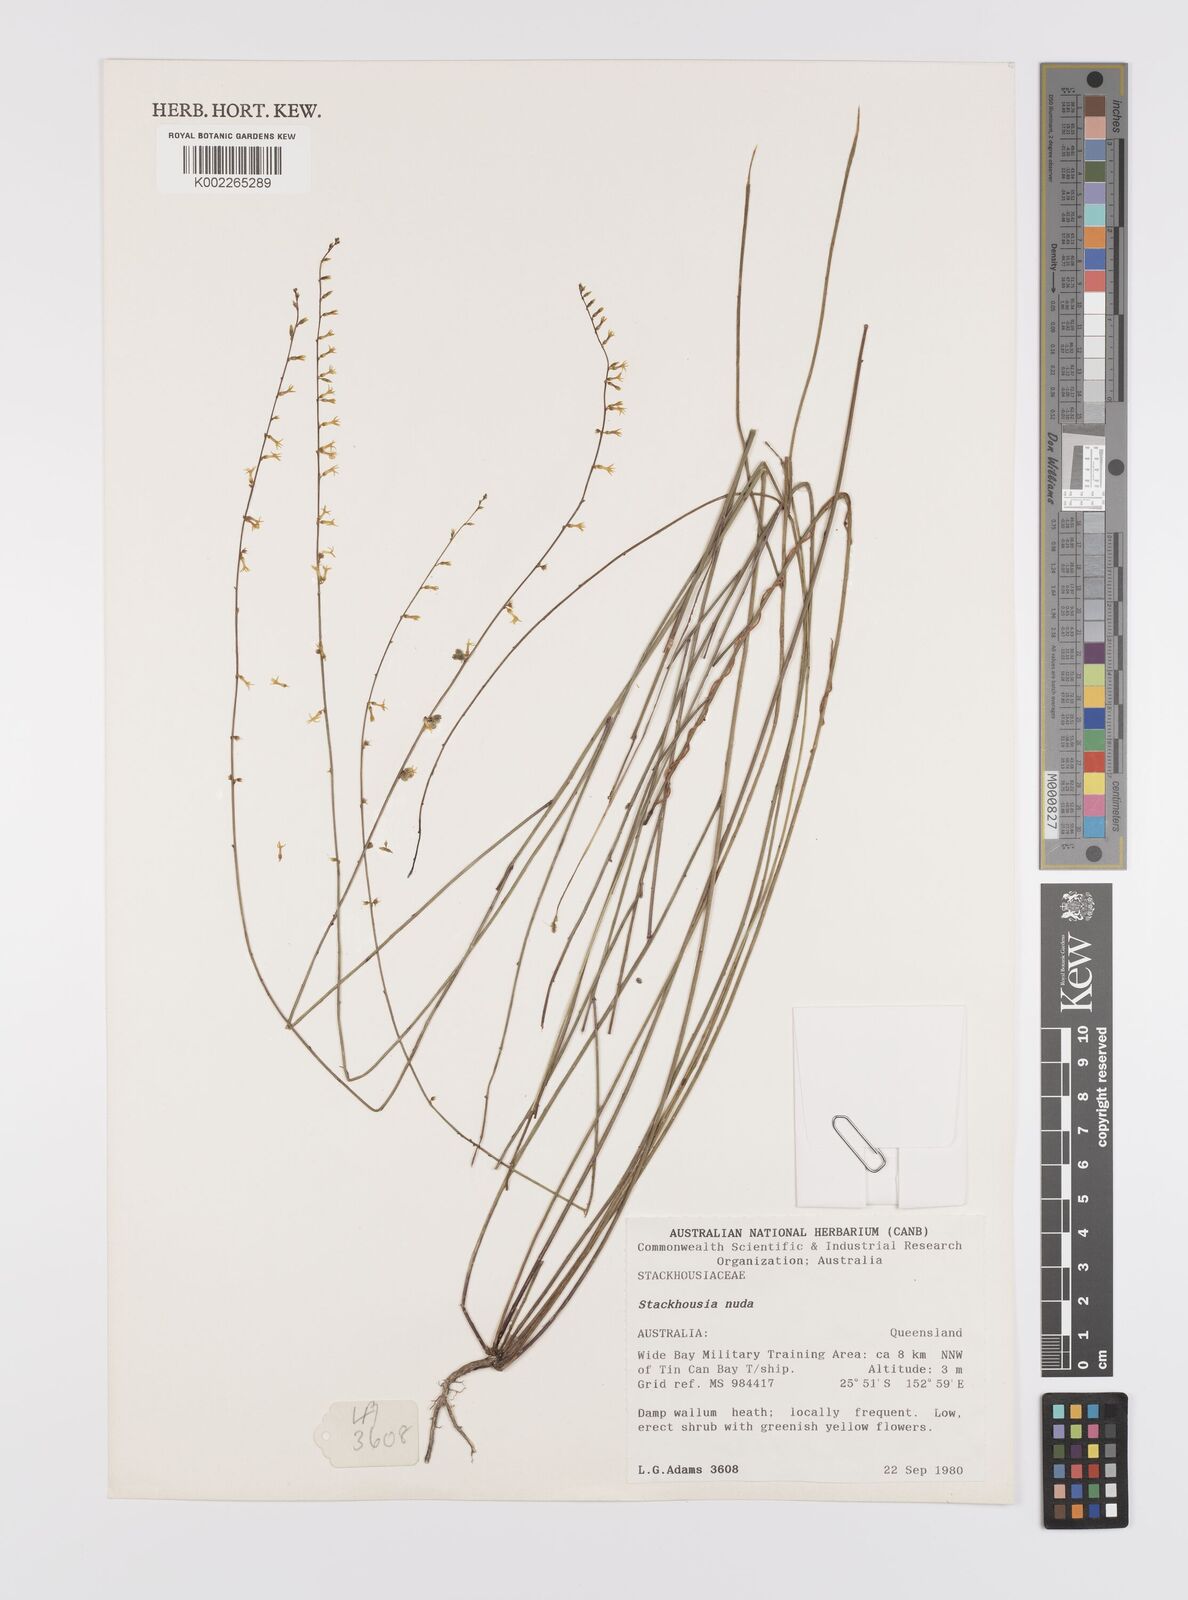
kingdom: Plantae
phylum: Tracheophyta
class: Magnoliopsida
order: Celastrales
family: Celastraceae
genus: Stackhousia
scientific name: Stackhousia nuda
